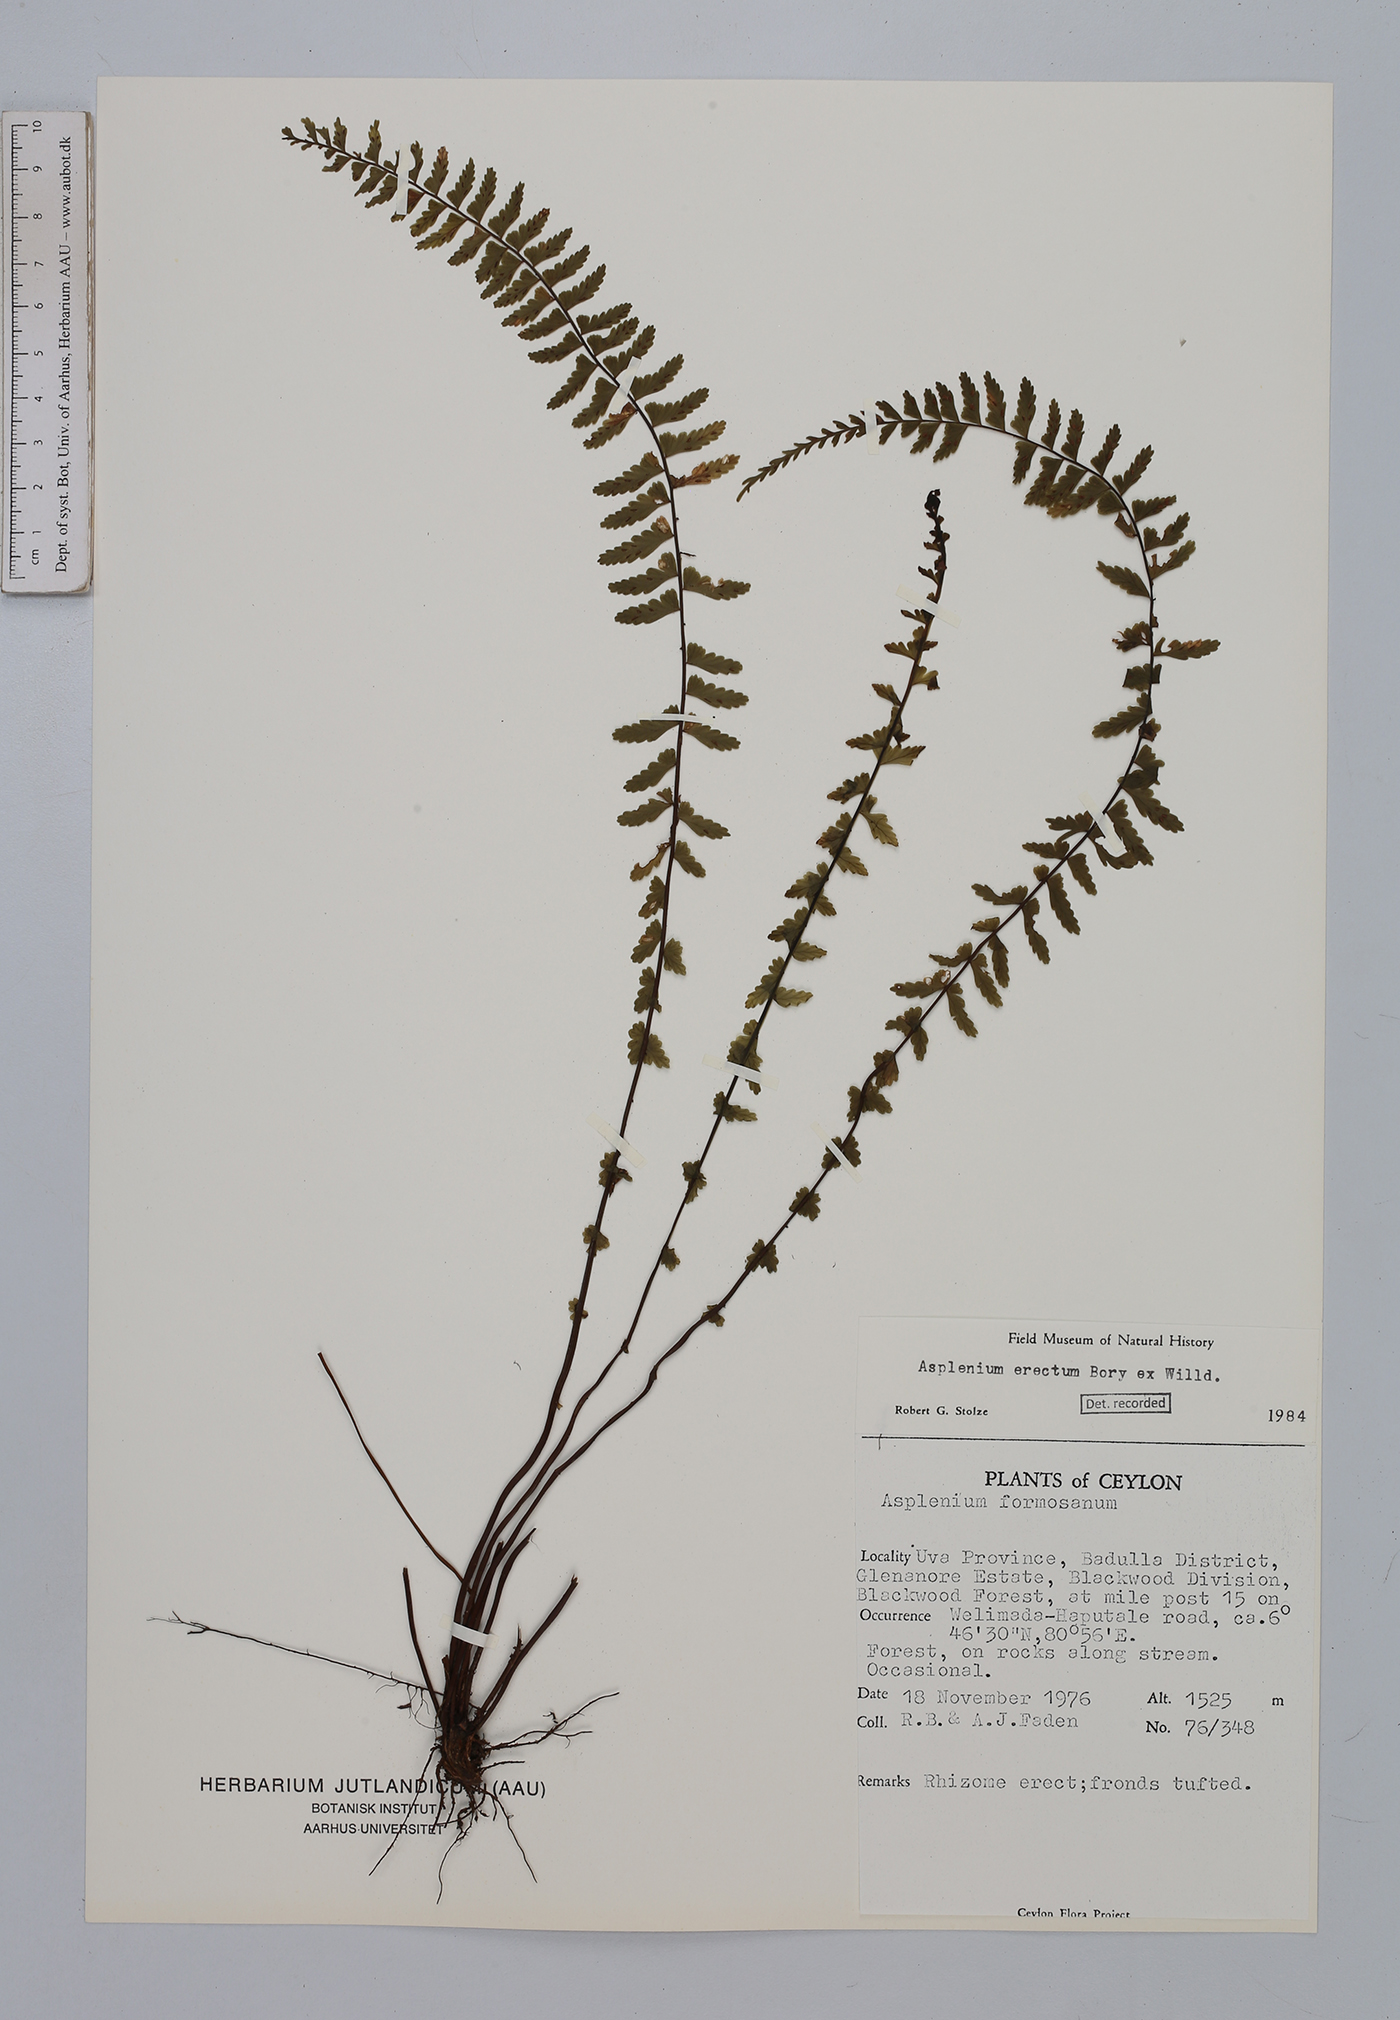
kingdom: Plantae
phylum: Tracheophyta
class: Polypodiopsida
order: Polypodiales
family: Aspleniaceae
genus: Asplenium
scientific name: Asplenium erectum
